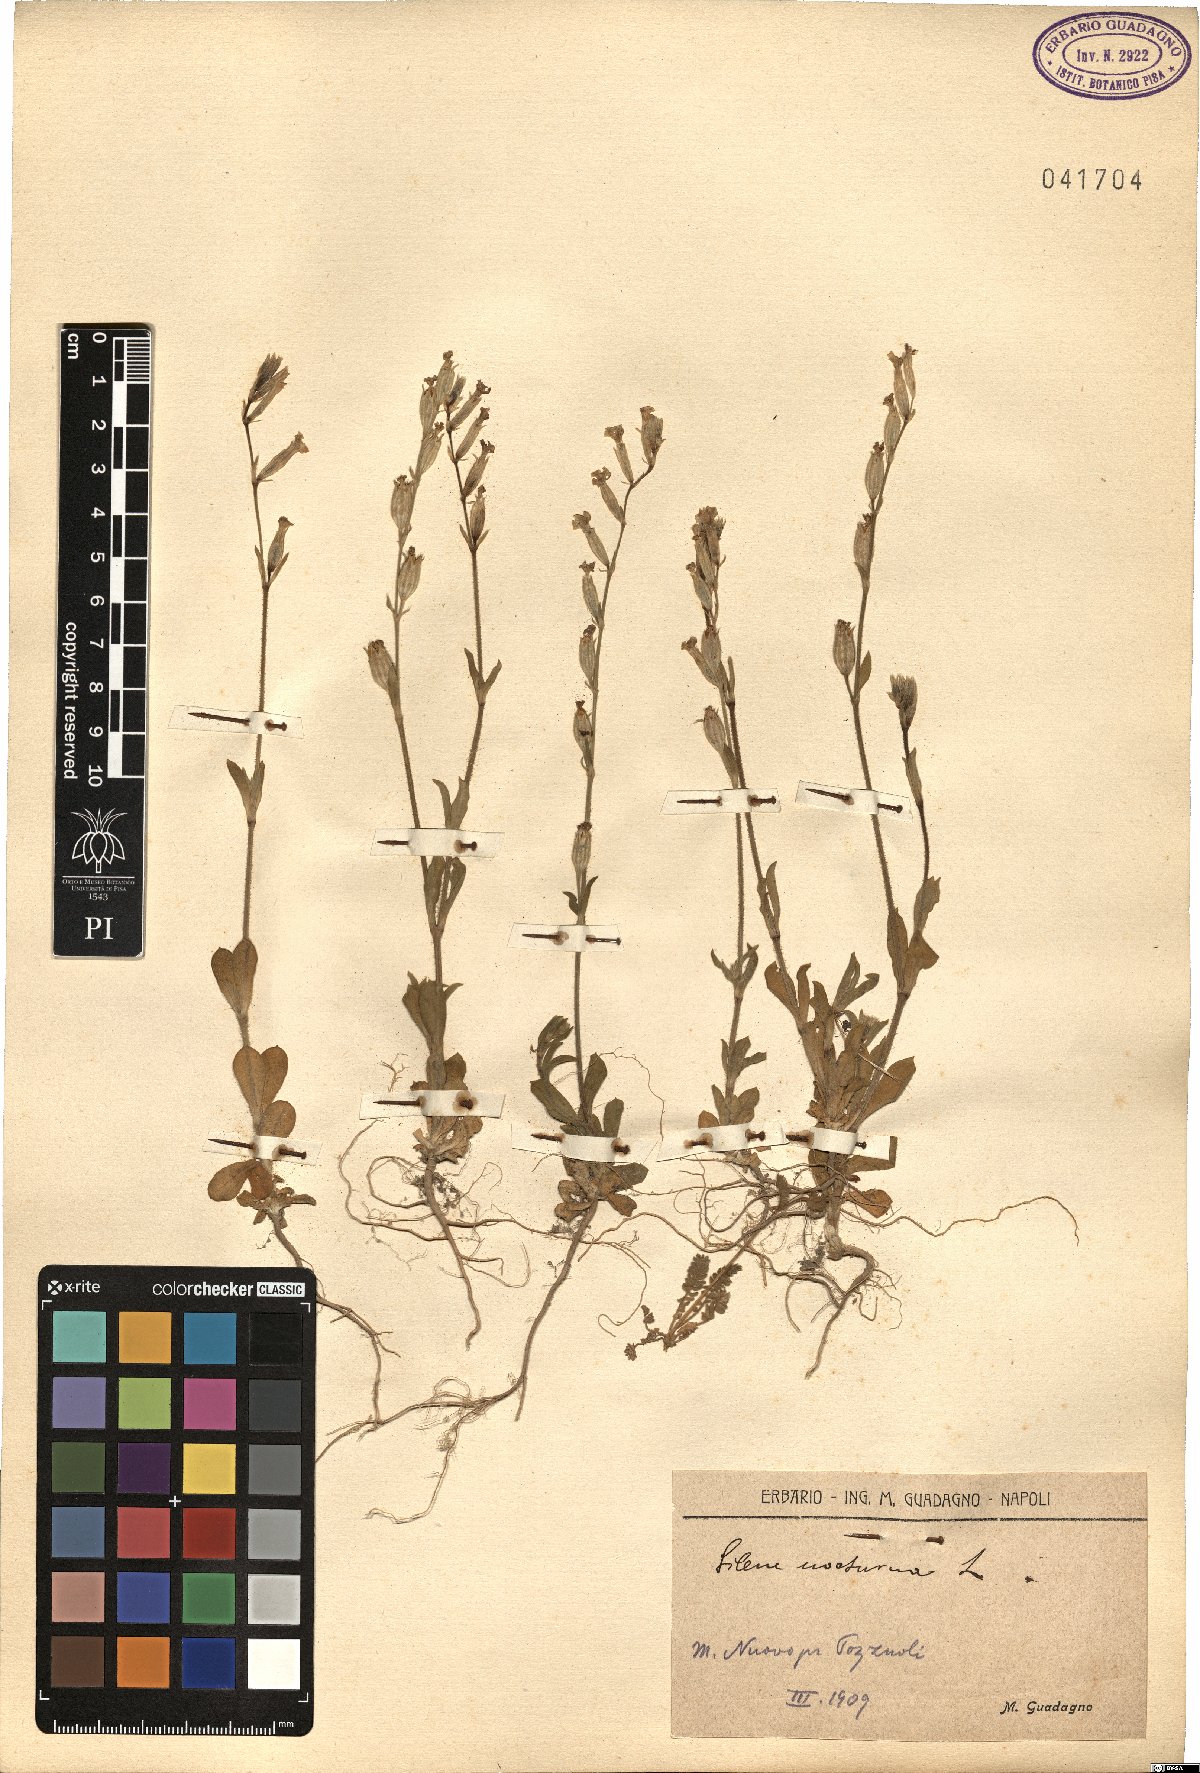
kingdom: Plantae
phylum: Tracheophyta
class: Magnoliopsida
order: Caryophyllales
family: Caryophyllaceae
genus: Silene
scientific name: Silene nocturna
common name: Mediterranean catchfly
